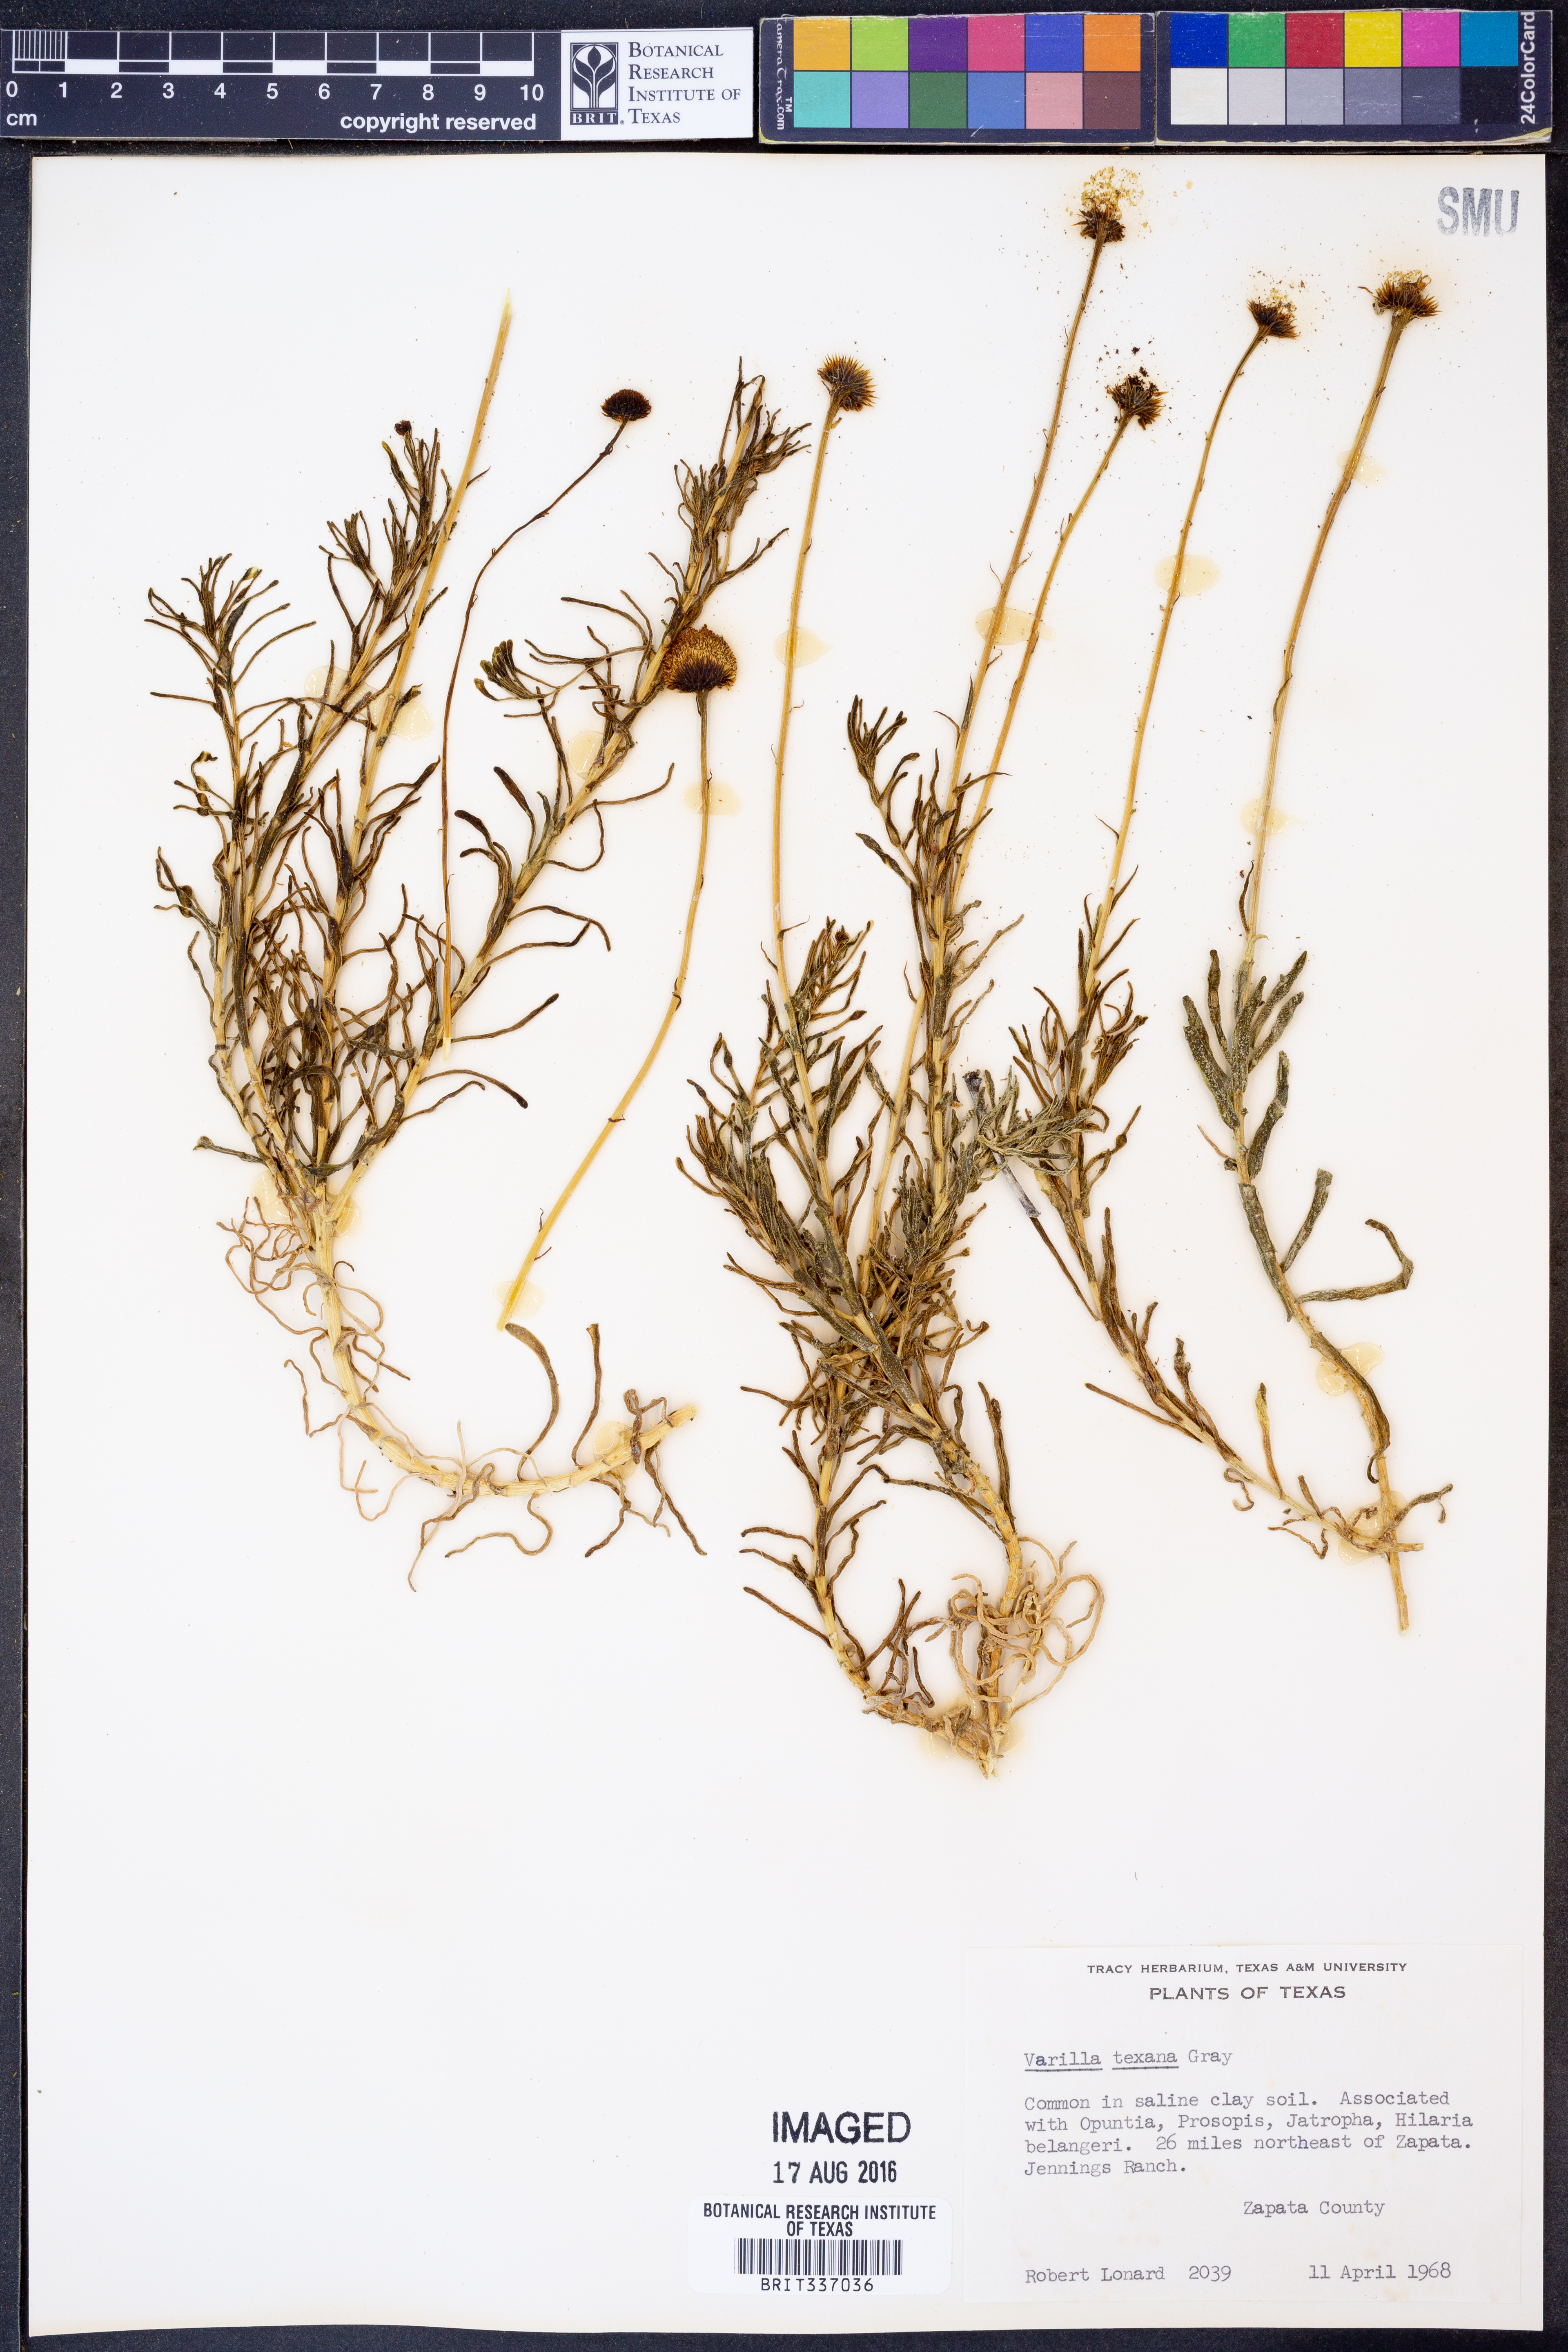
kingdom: Plantae
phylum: Tracheophyta
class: Magnoliopsida
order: Asterales
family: Asteraceae
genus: Varilla
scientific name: Varilla texana
